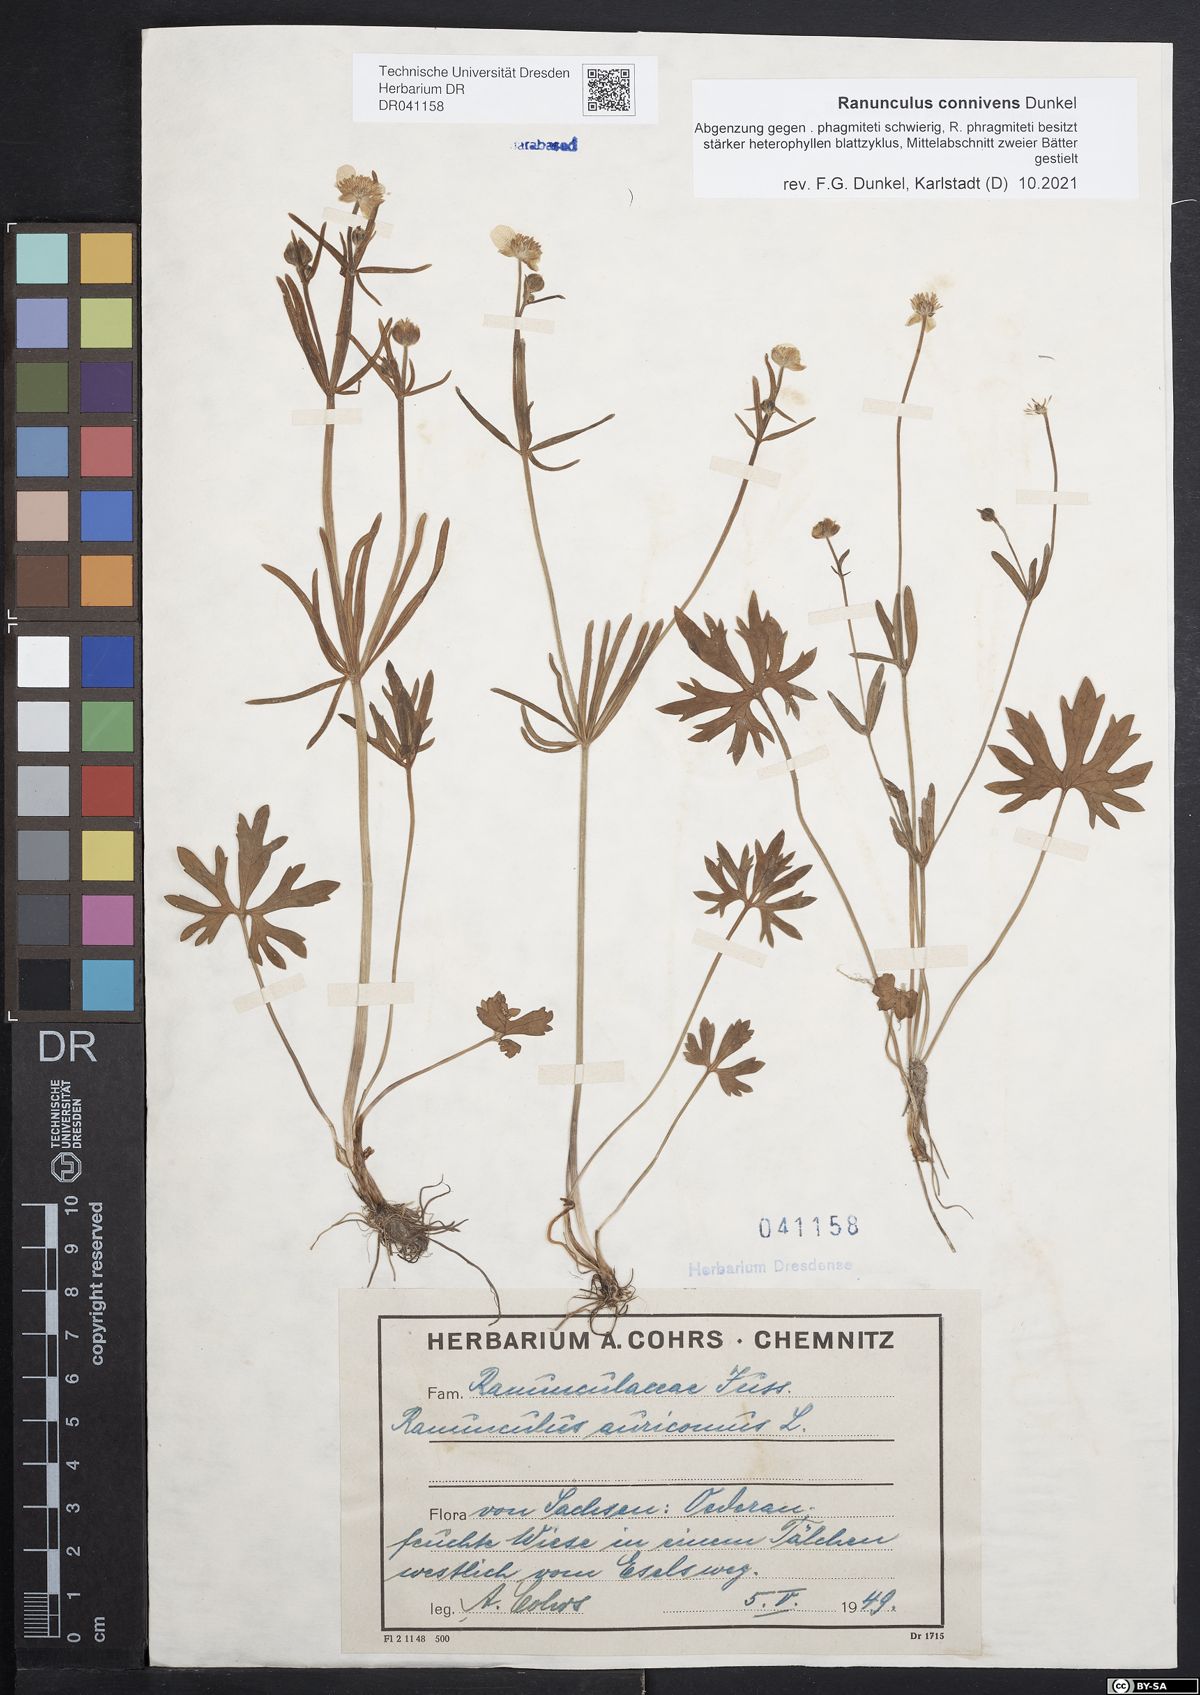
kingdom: Plantae
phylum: Tracheophyta
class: Magnoliopsida
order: Ranunculales
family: Ranunculaceae
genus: Ranunculus
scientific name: Ranunculus connivens
